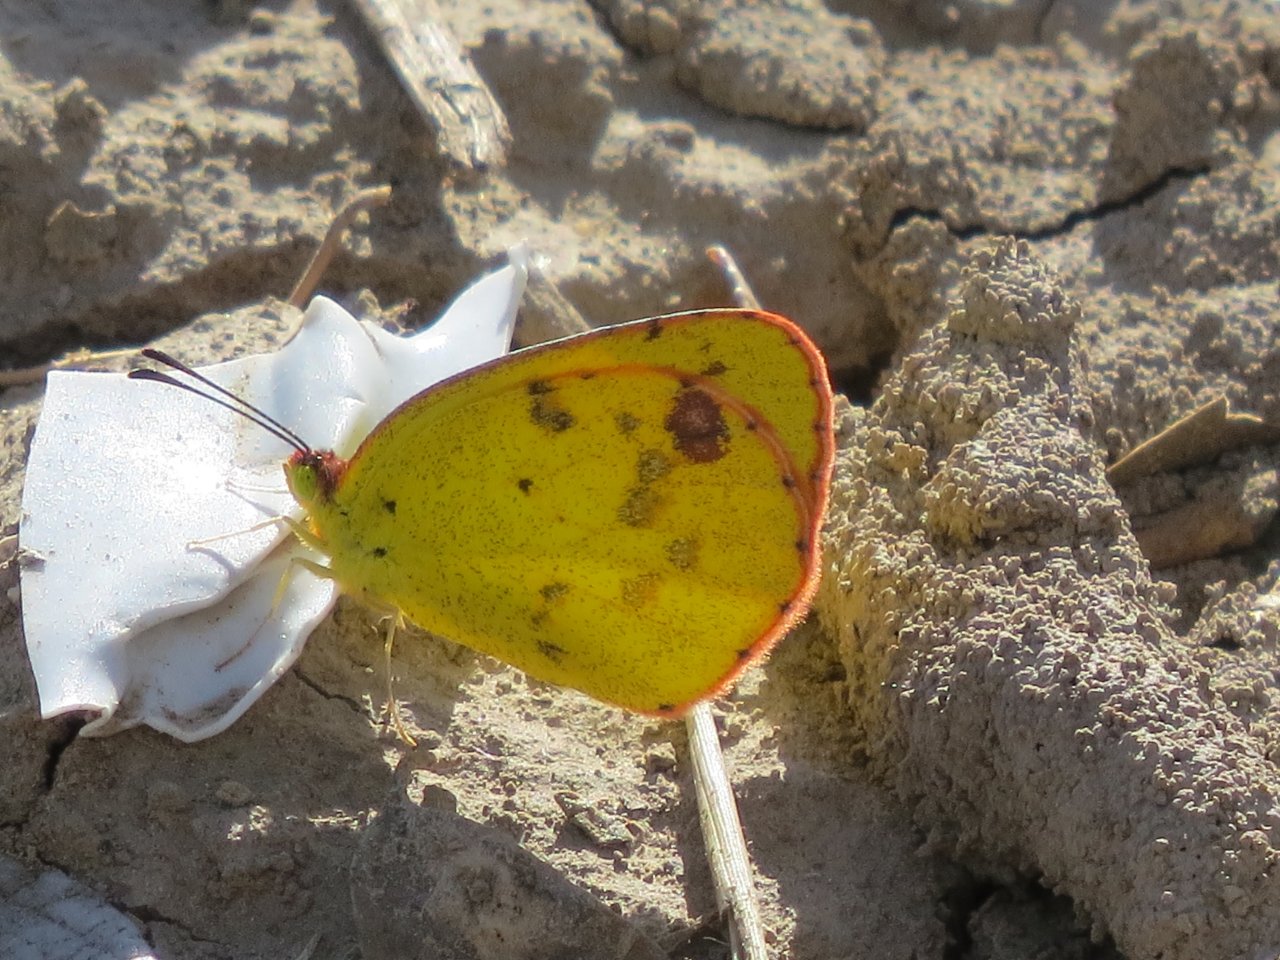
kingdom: Animalia
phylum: Arthropoda
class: Insecta
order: Lepidoptera
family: Pieridae
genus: Pyrisitia
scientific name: Pyrisitia lisa
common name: Little Yellow
